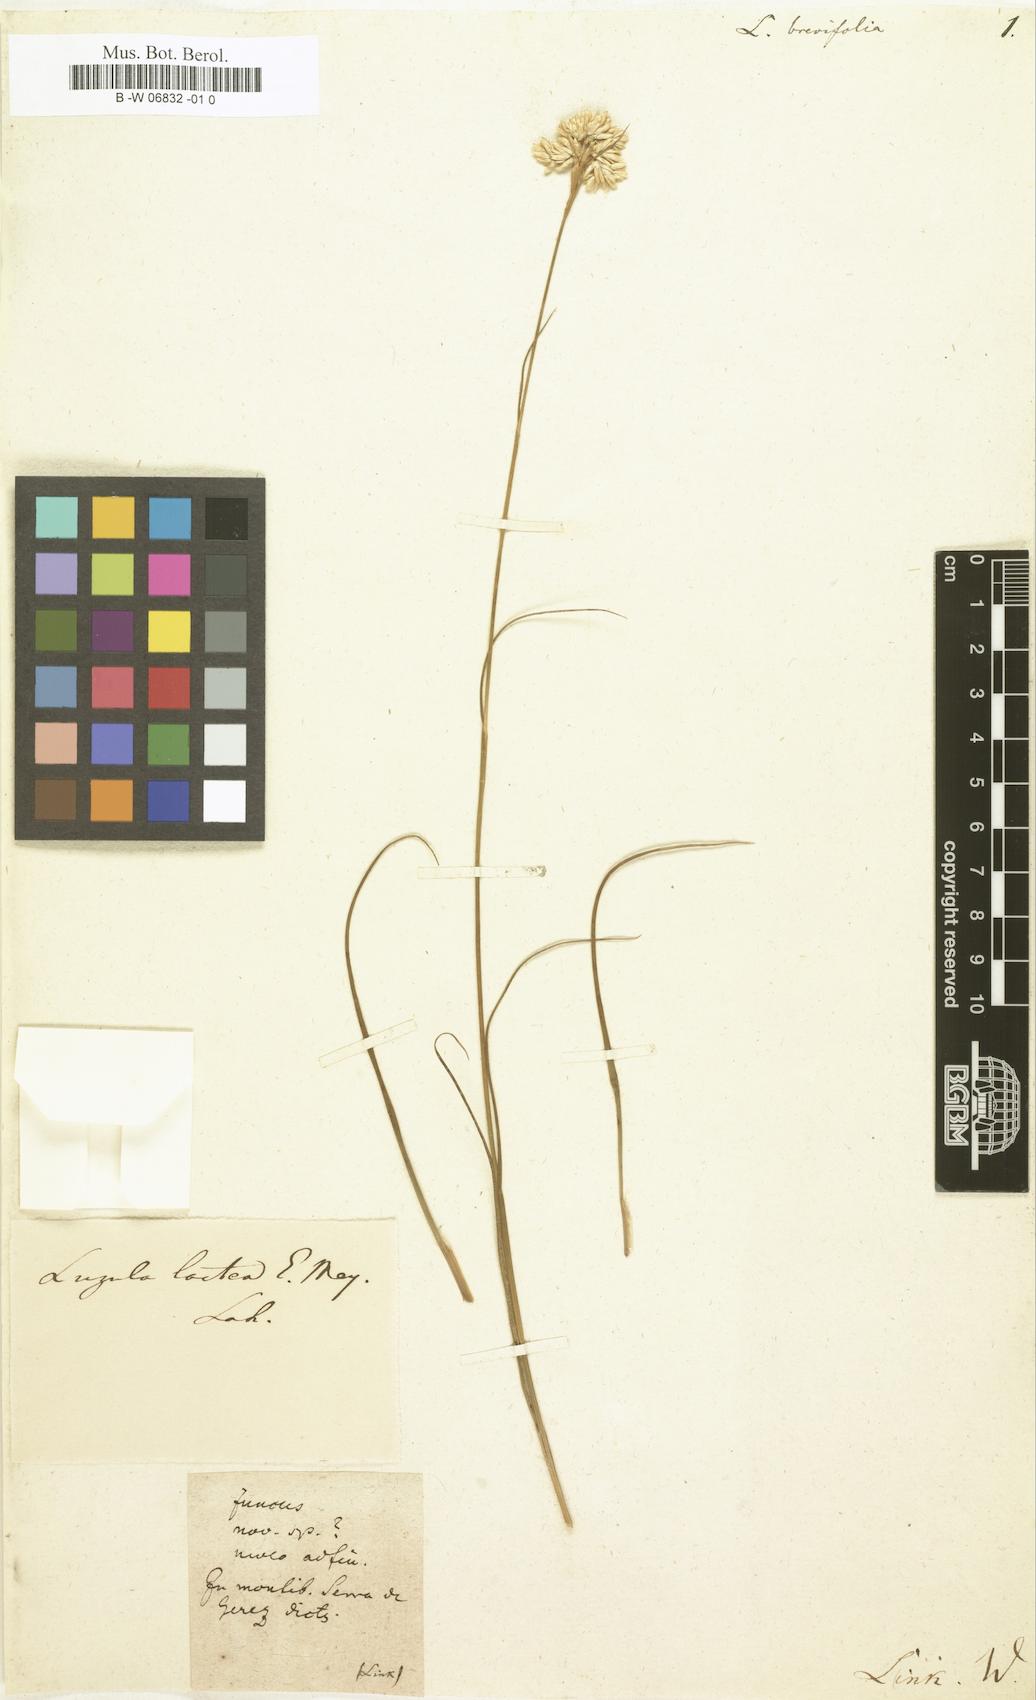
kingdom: Plantae
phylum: Tracheophyta
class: Liliopsida
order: Poales
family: Juncaceae
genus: Luzula
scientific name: Luzula brevifolia
